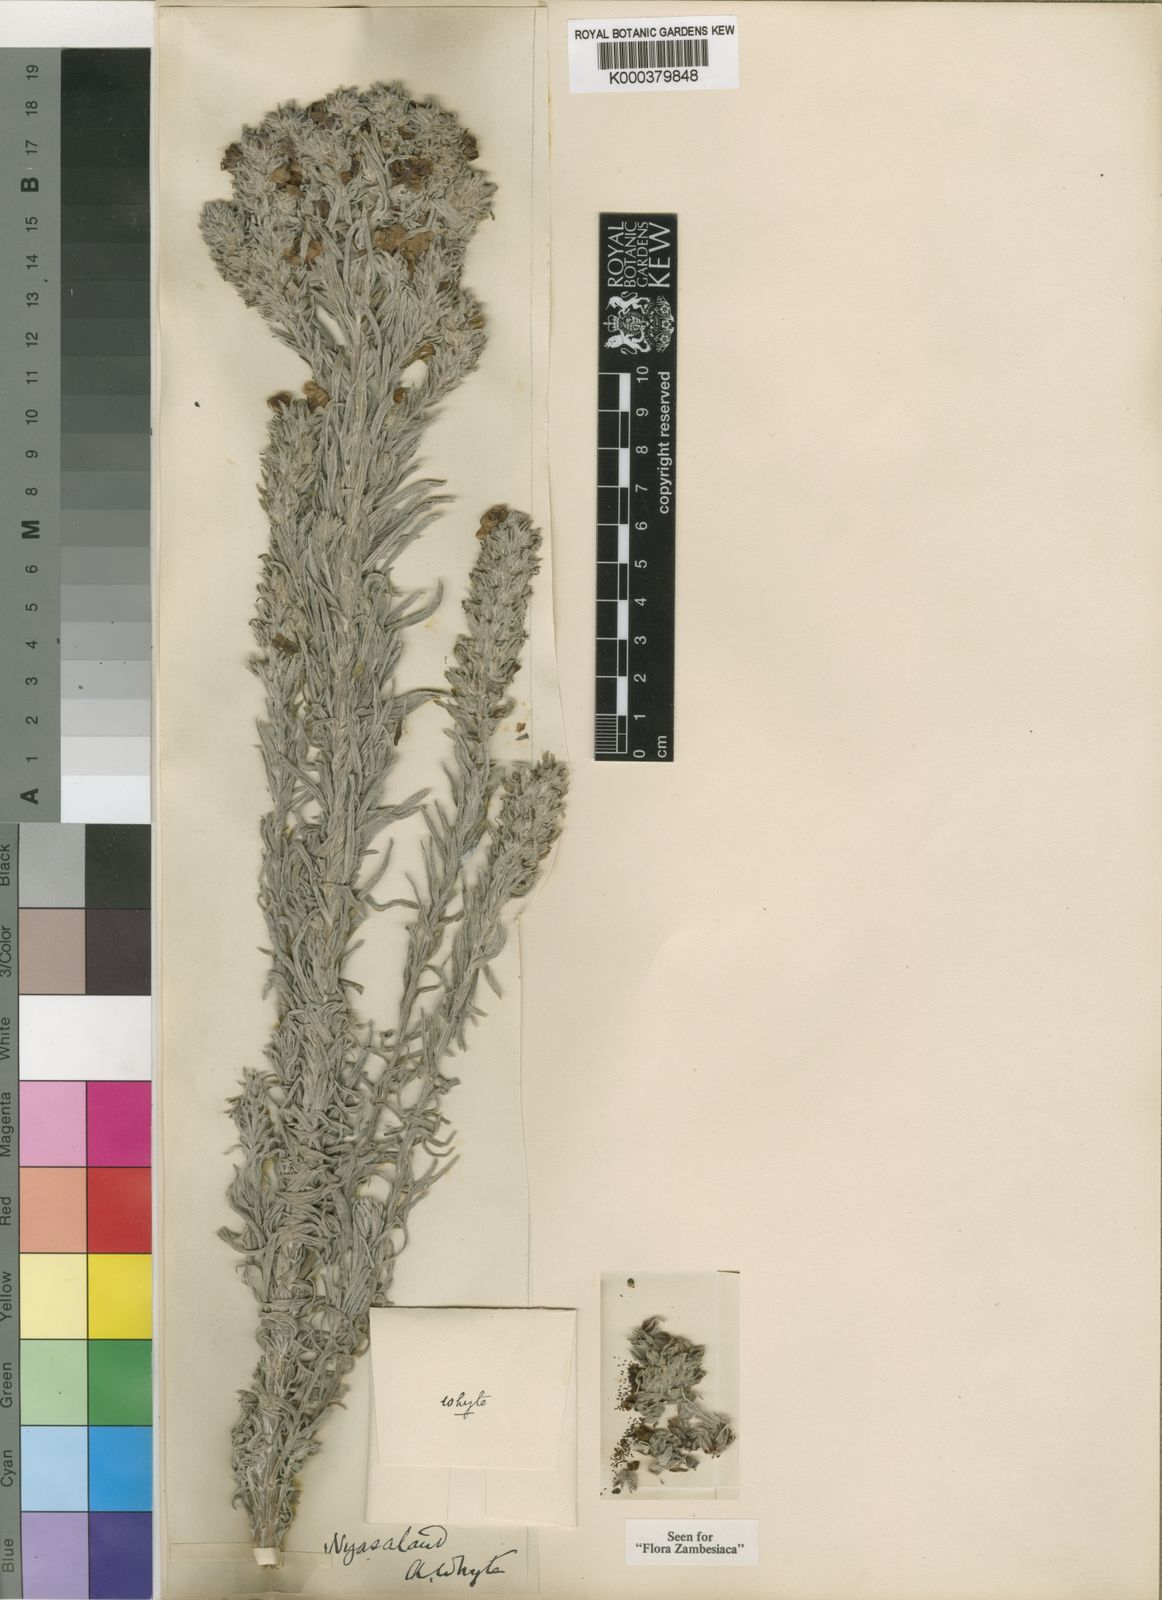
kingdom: Plantae
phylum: Tracheophyta
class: Magnoliopsida
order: Lamiales
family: Orobanchaceae
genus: Sopubia
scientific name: Sopubia lanata
